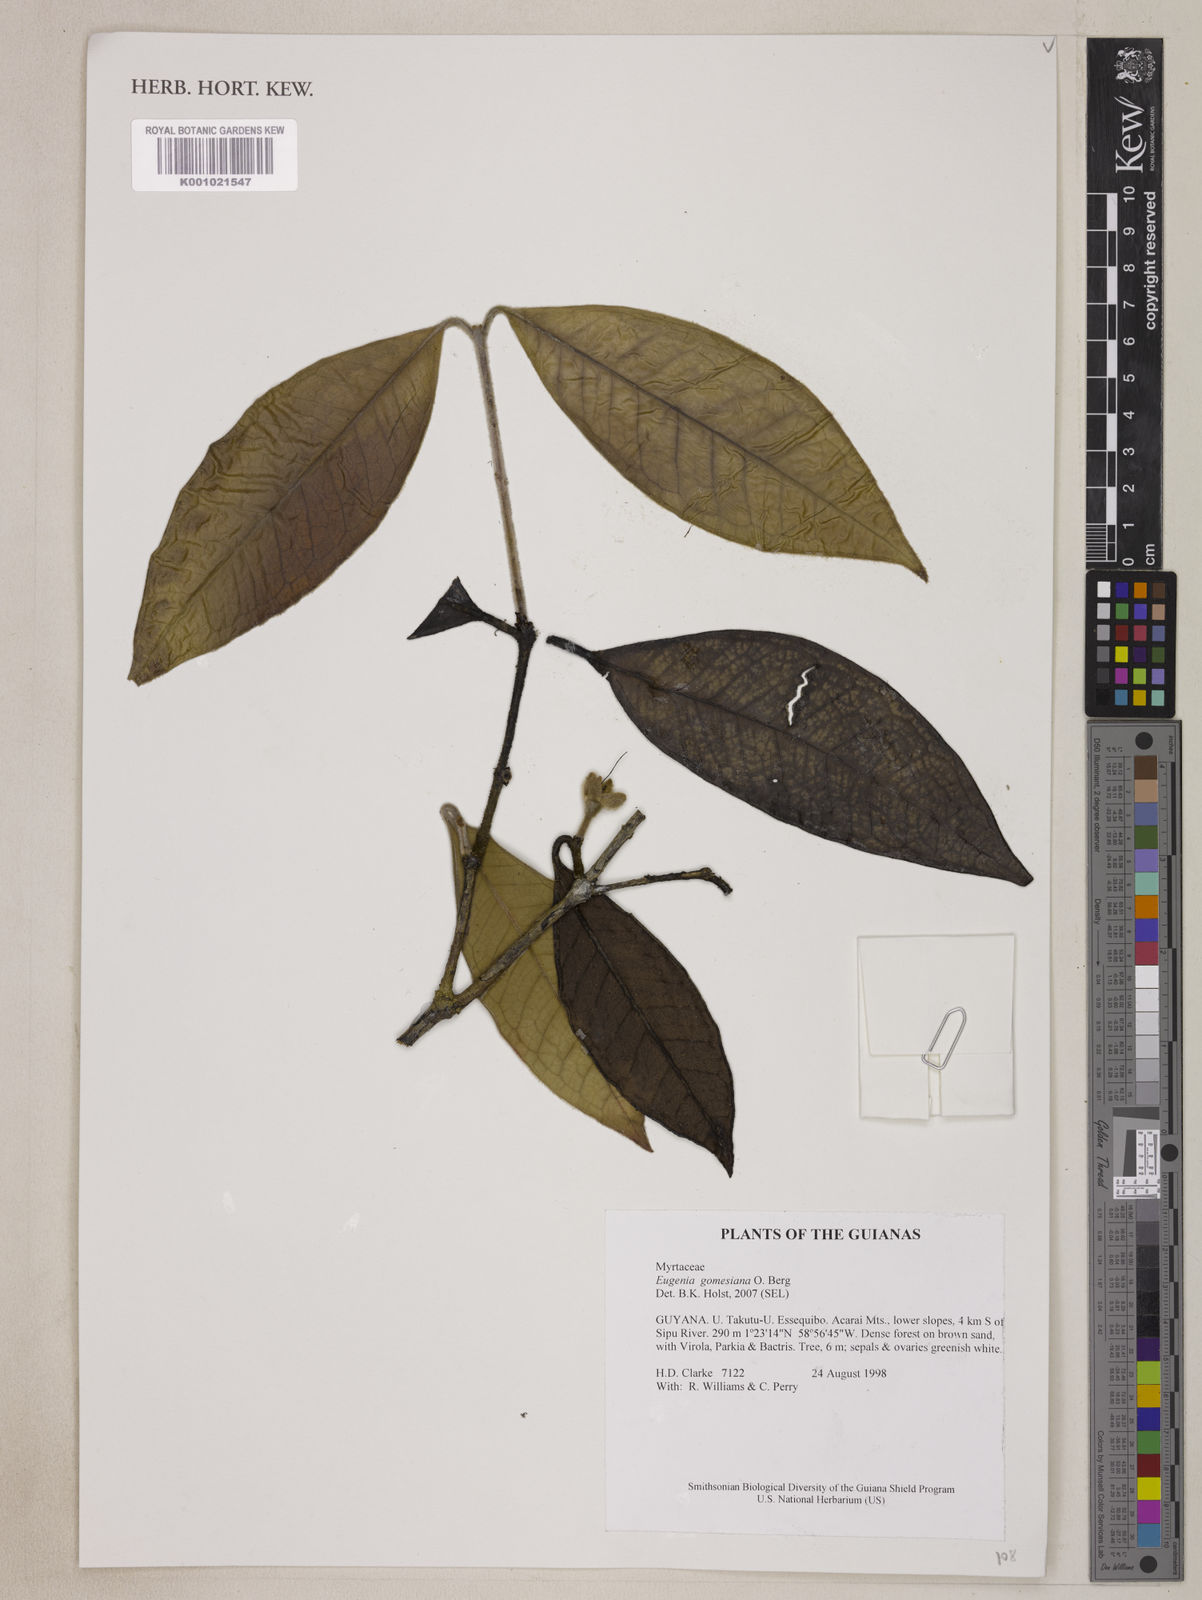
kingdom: Plantae
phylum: Tracheophyta
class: Magnoliopsida
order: Myrtales
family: Myrtaceae
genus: Eugenia
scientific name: Eugenia gomesiana
